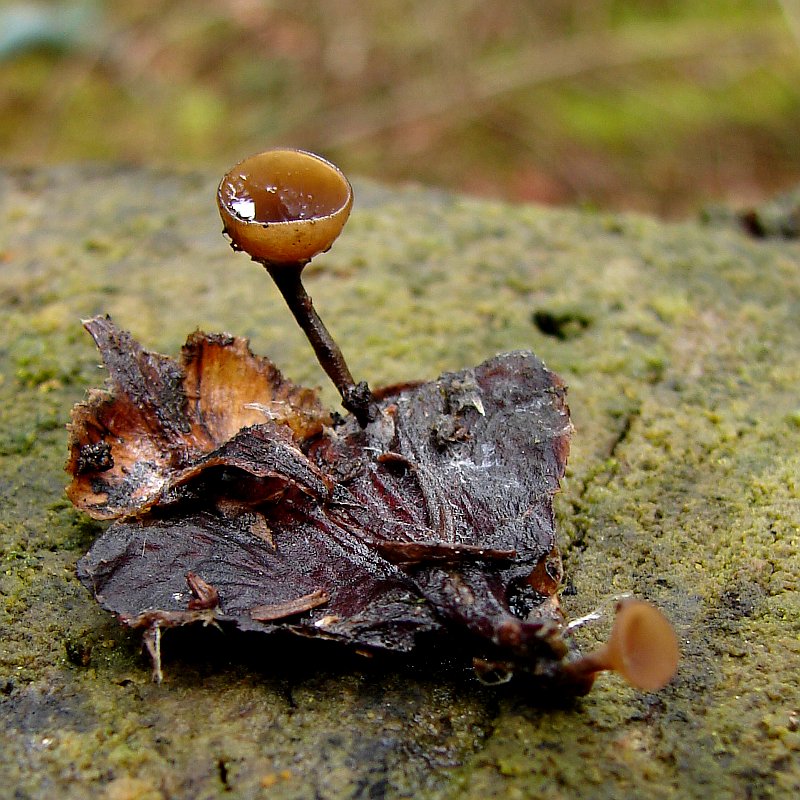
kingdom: Fungi
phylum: Ascomycota
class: Leotiomycetes
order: Helotiales
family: Sclerotiniaceae
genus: Ciboria
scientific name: Ciboria rufofusca
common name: kogleskæl-knoldskive
